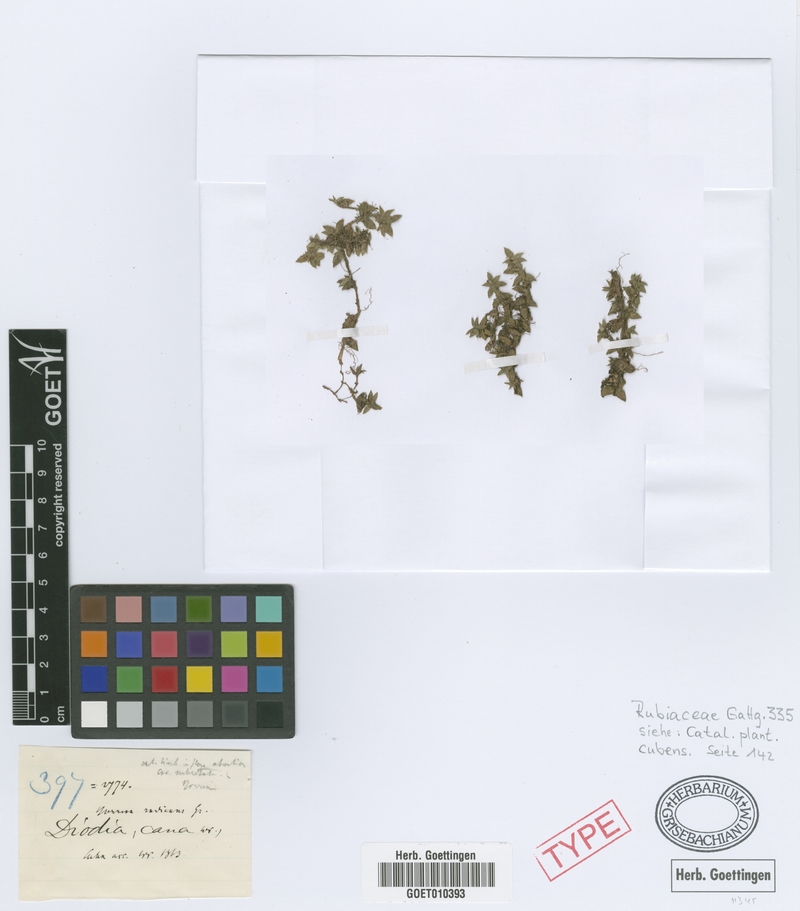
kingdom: Plantae
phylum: Tracheophyta
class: Magnoliopsida
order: Gentianales
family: Rubiaceae
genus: Nodocarpaea
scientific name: Nodocarpaea radicans
